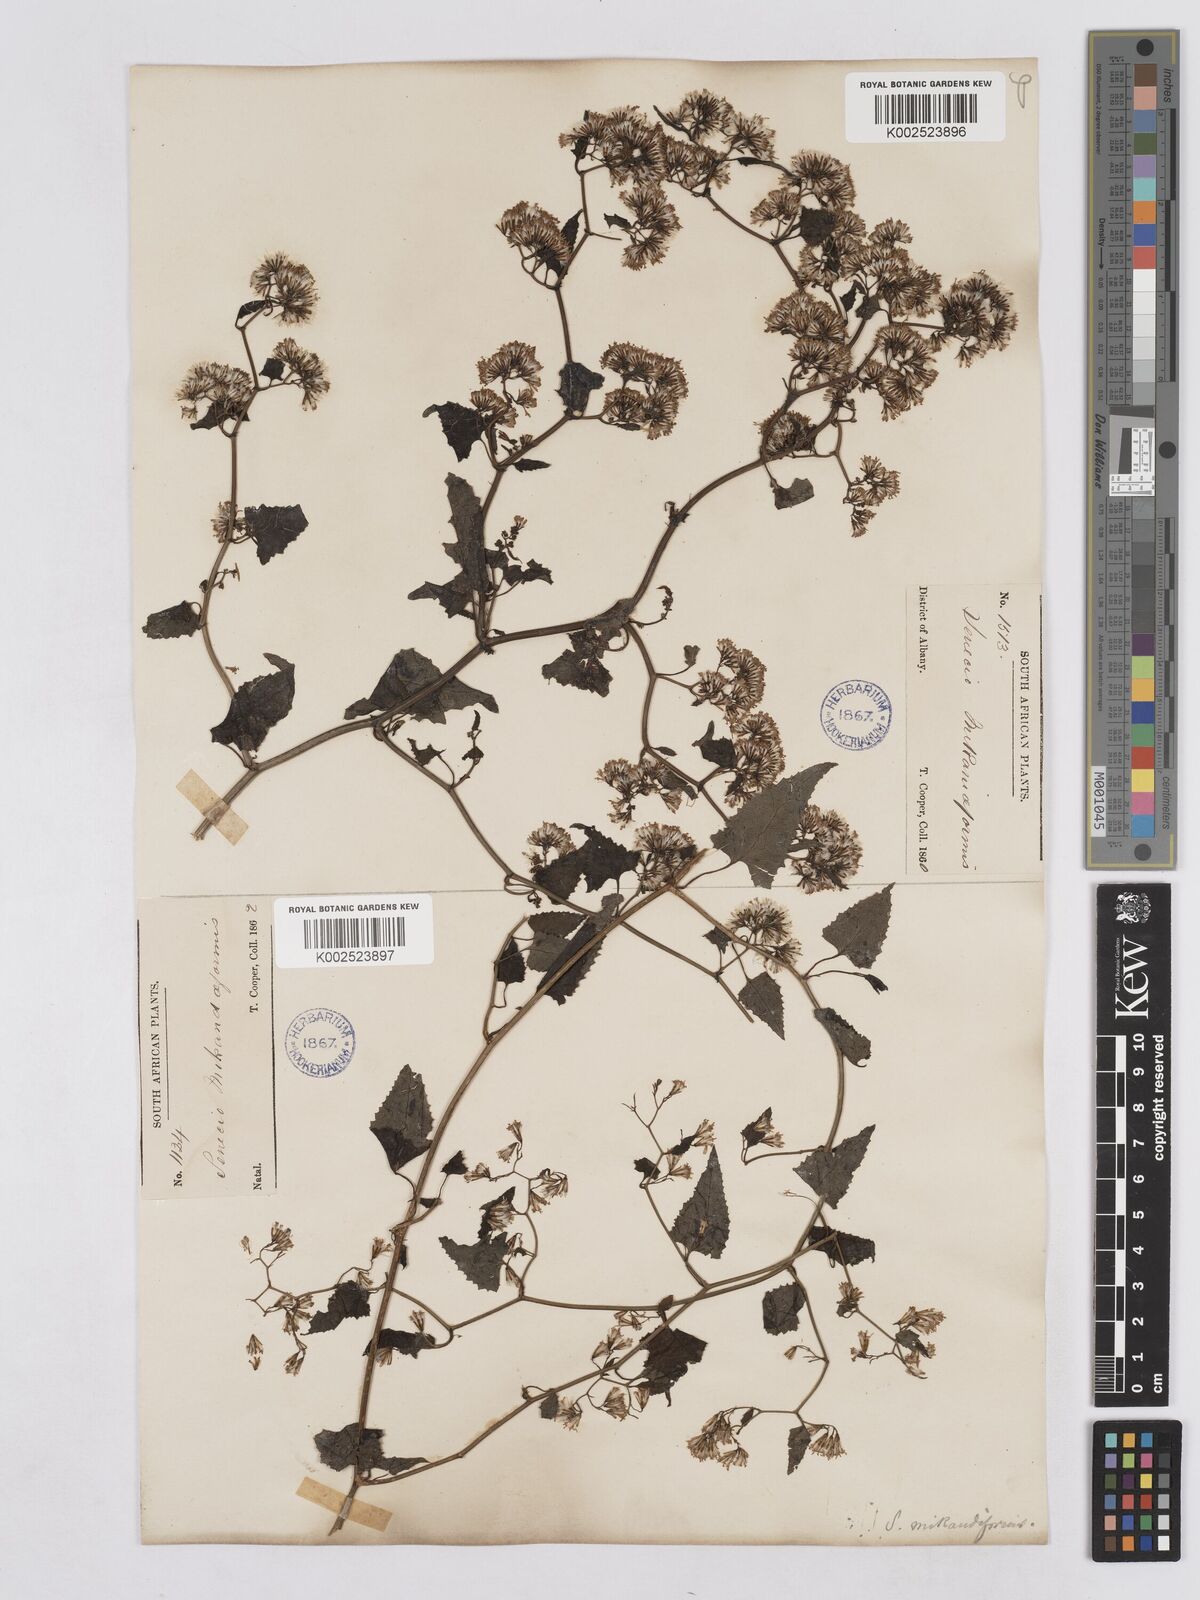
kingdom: Plantae
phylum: Tracheophyta
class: Magnoliopsida
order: Asterales
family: Asteraceae
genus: Senecio
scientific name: Senecio deltoideus
